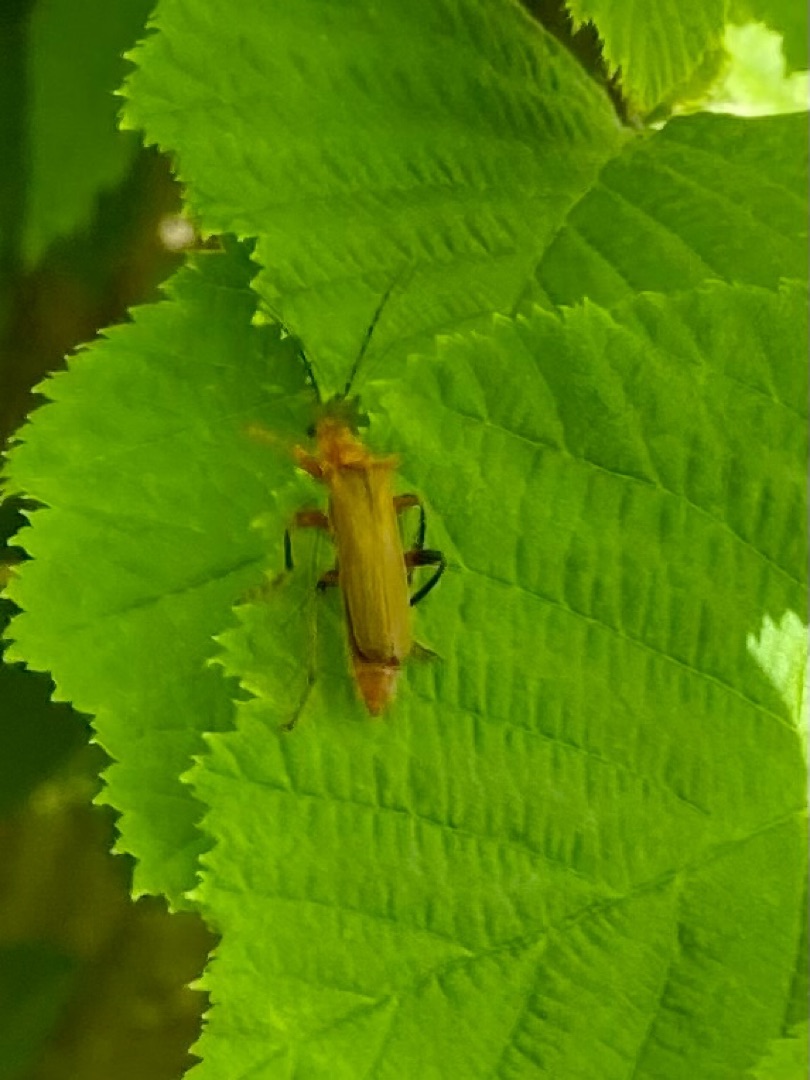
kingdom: Animalia
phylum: Arthropoda
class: Insecta
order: Coleoptera
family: Cantharidae
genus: Cantharis
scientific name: Cantharis livida
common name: Gul blødvinge
